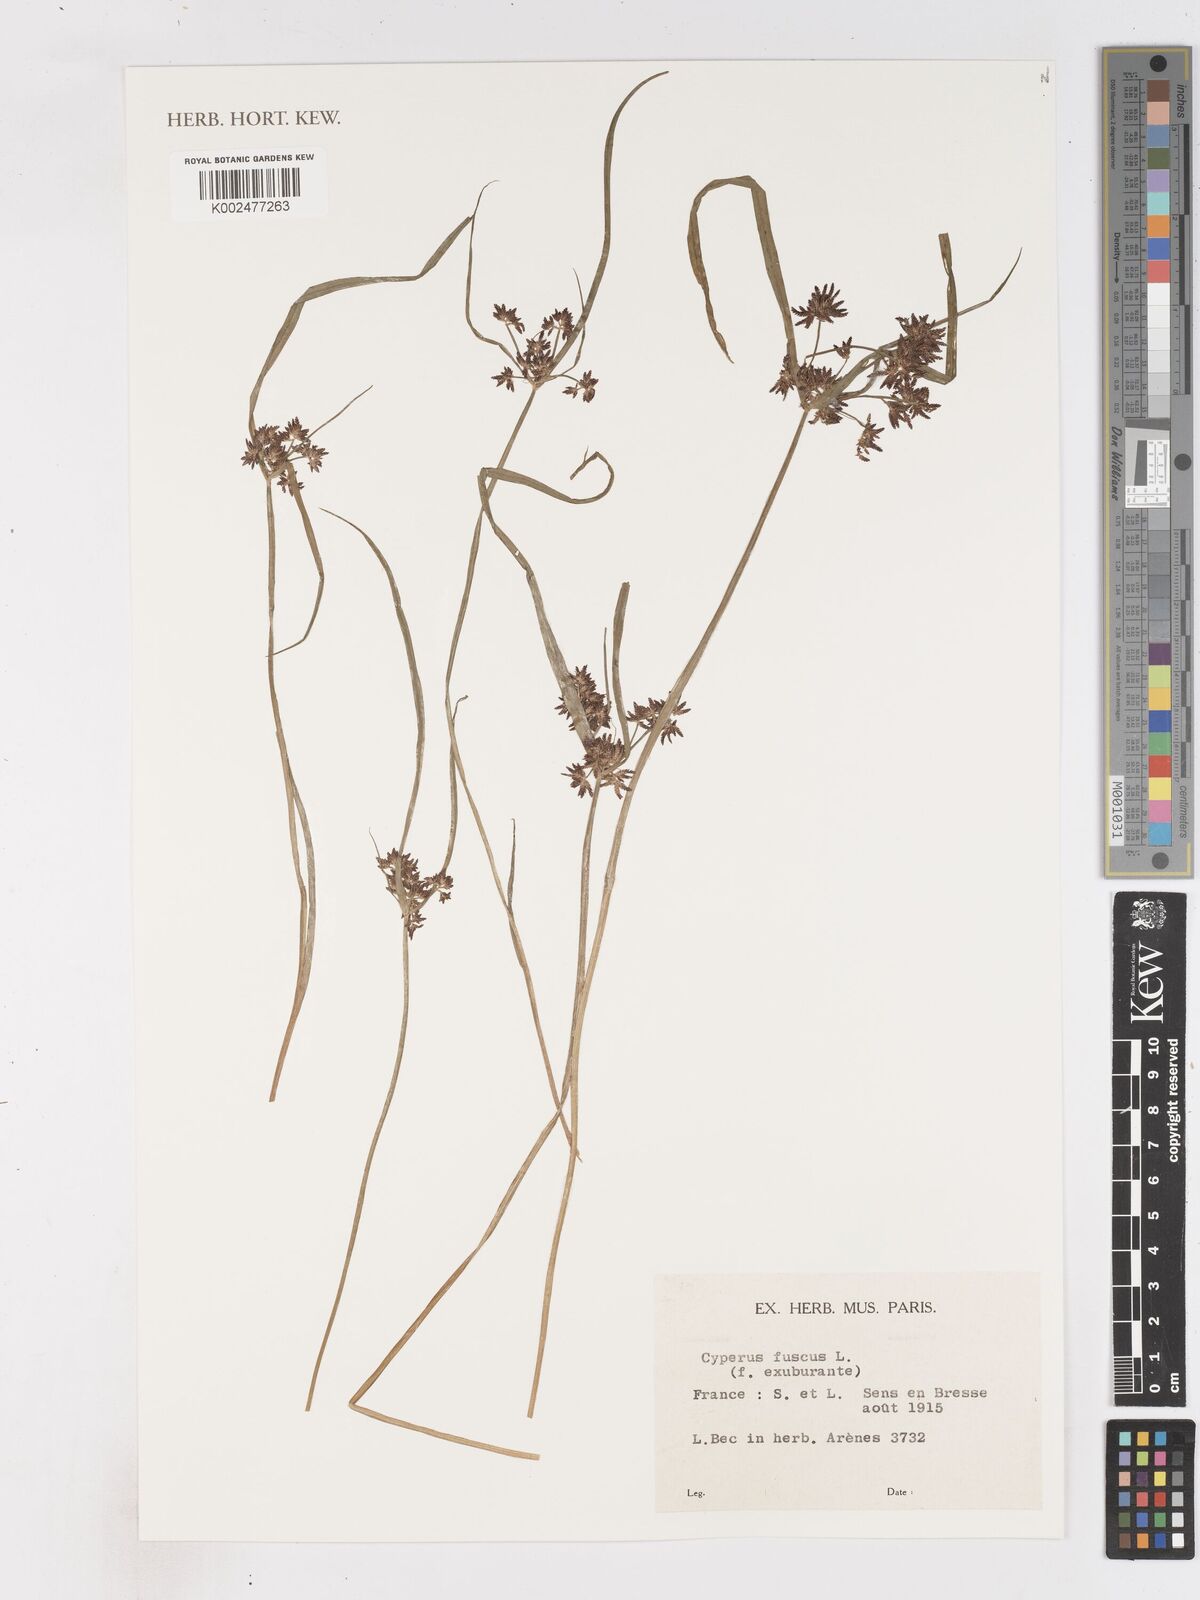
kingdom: Plantae
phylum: Tracheophyta
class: Liliopsida
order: Poales
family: Cyperaceae
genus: Cyperus
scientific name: Cyperus fuscus
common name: Brown galingale
